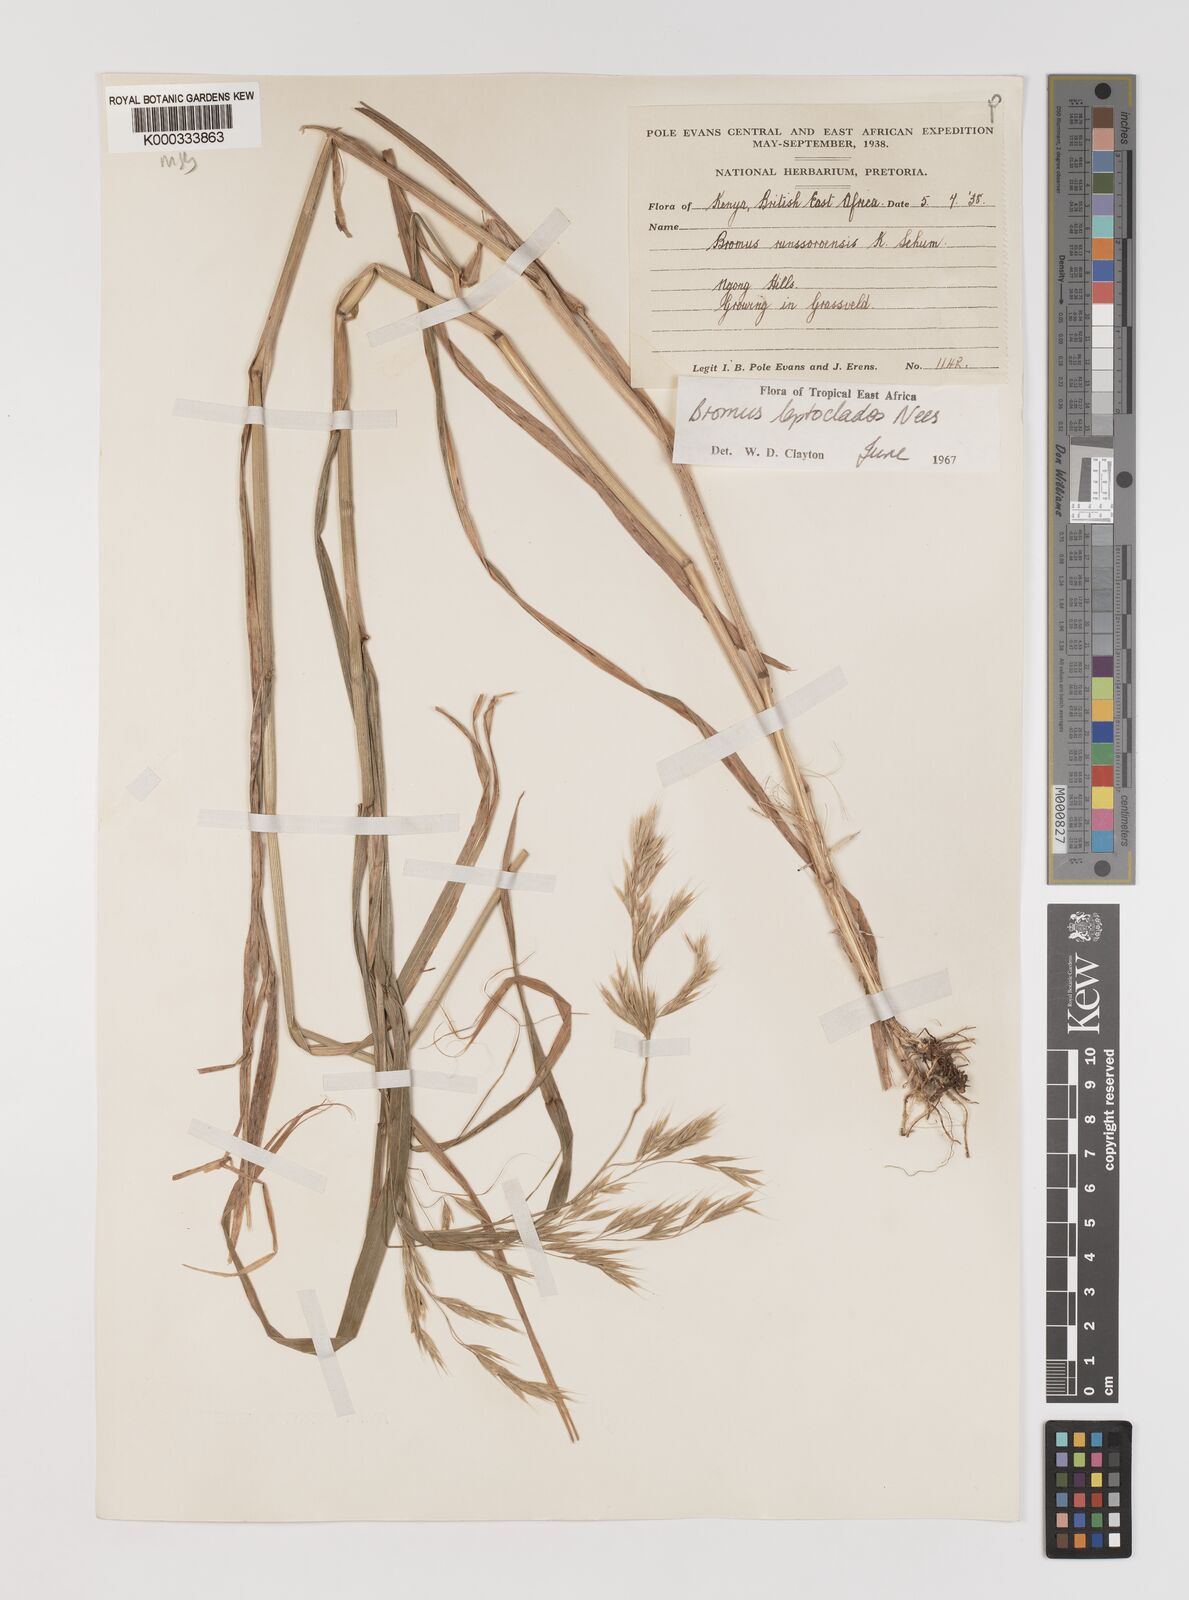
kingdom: Plantae
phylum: Tracheophyta
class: Liliopsida
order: Poales
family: Poaceae
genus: Bromus
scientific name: Bromus leptoclados
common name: Mountain bromegrass
